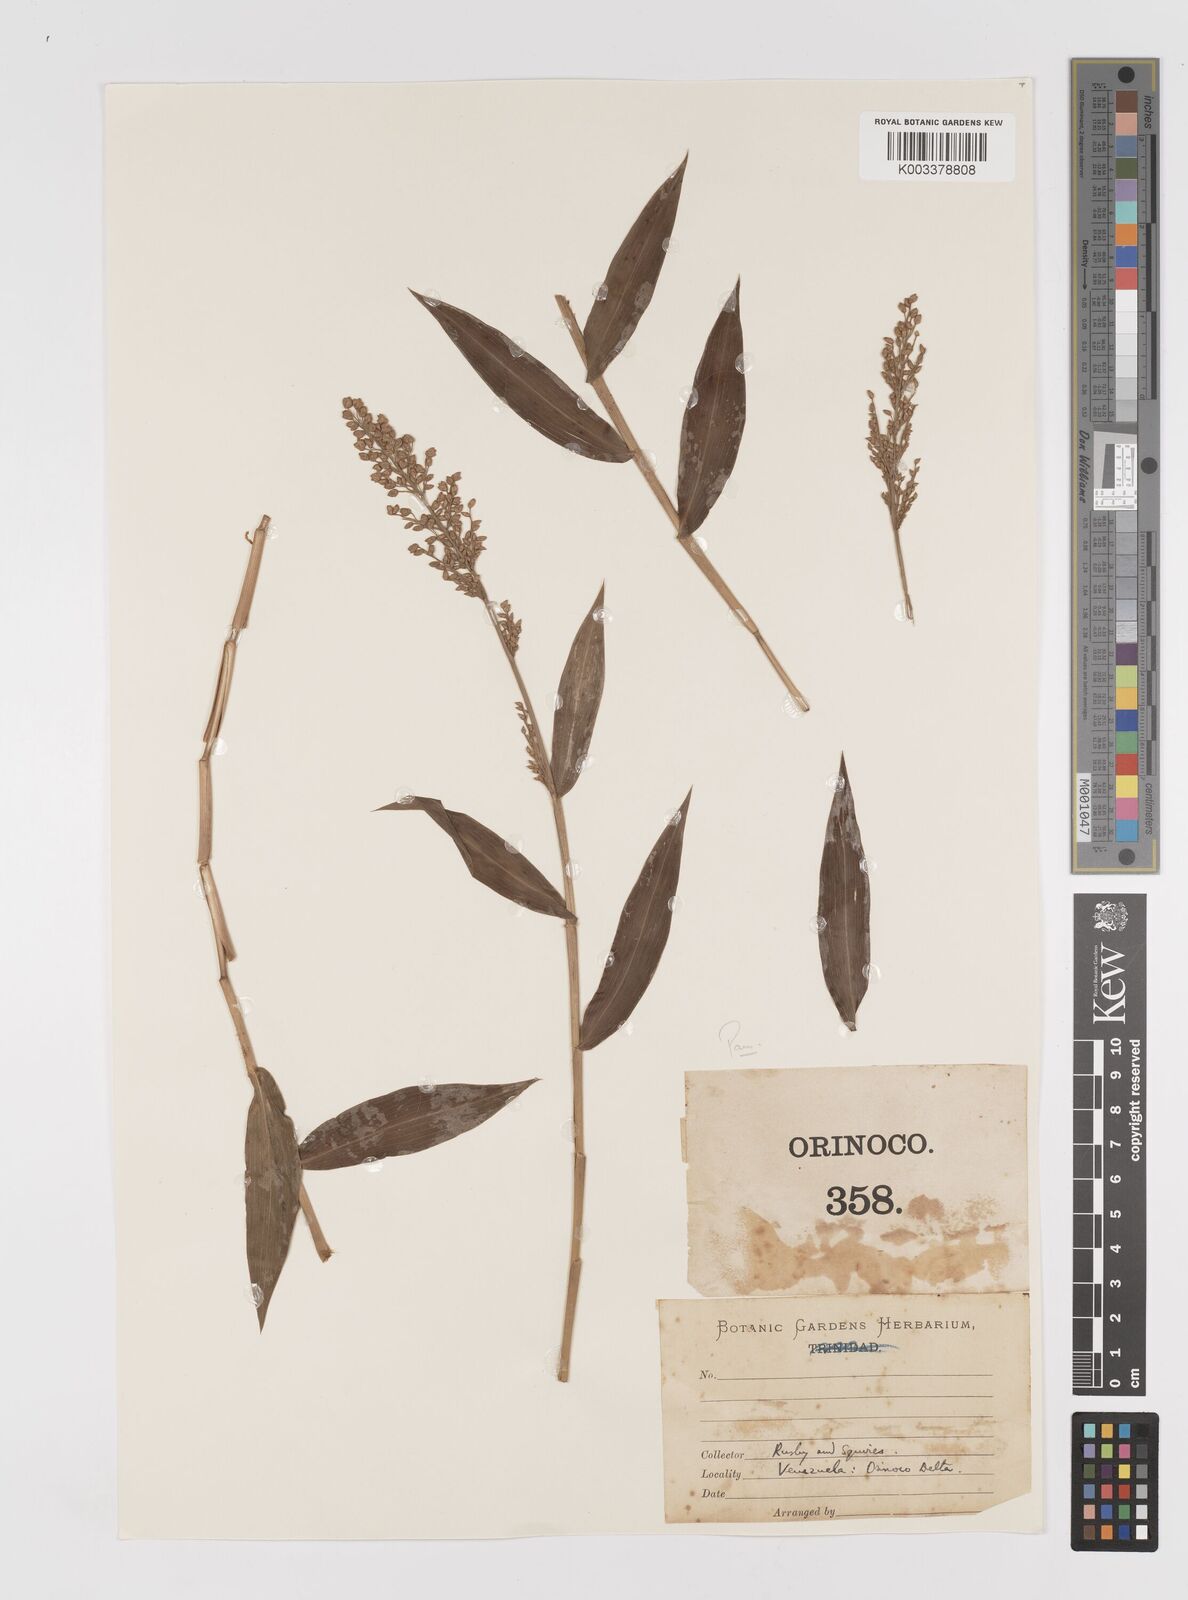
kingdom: Plantae
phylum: Tracheophyta
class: Liliopsida
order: Poales
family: Poaceae
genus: Lasiacis
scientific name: Lasiacis
